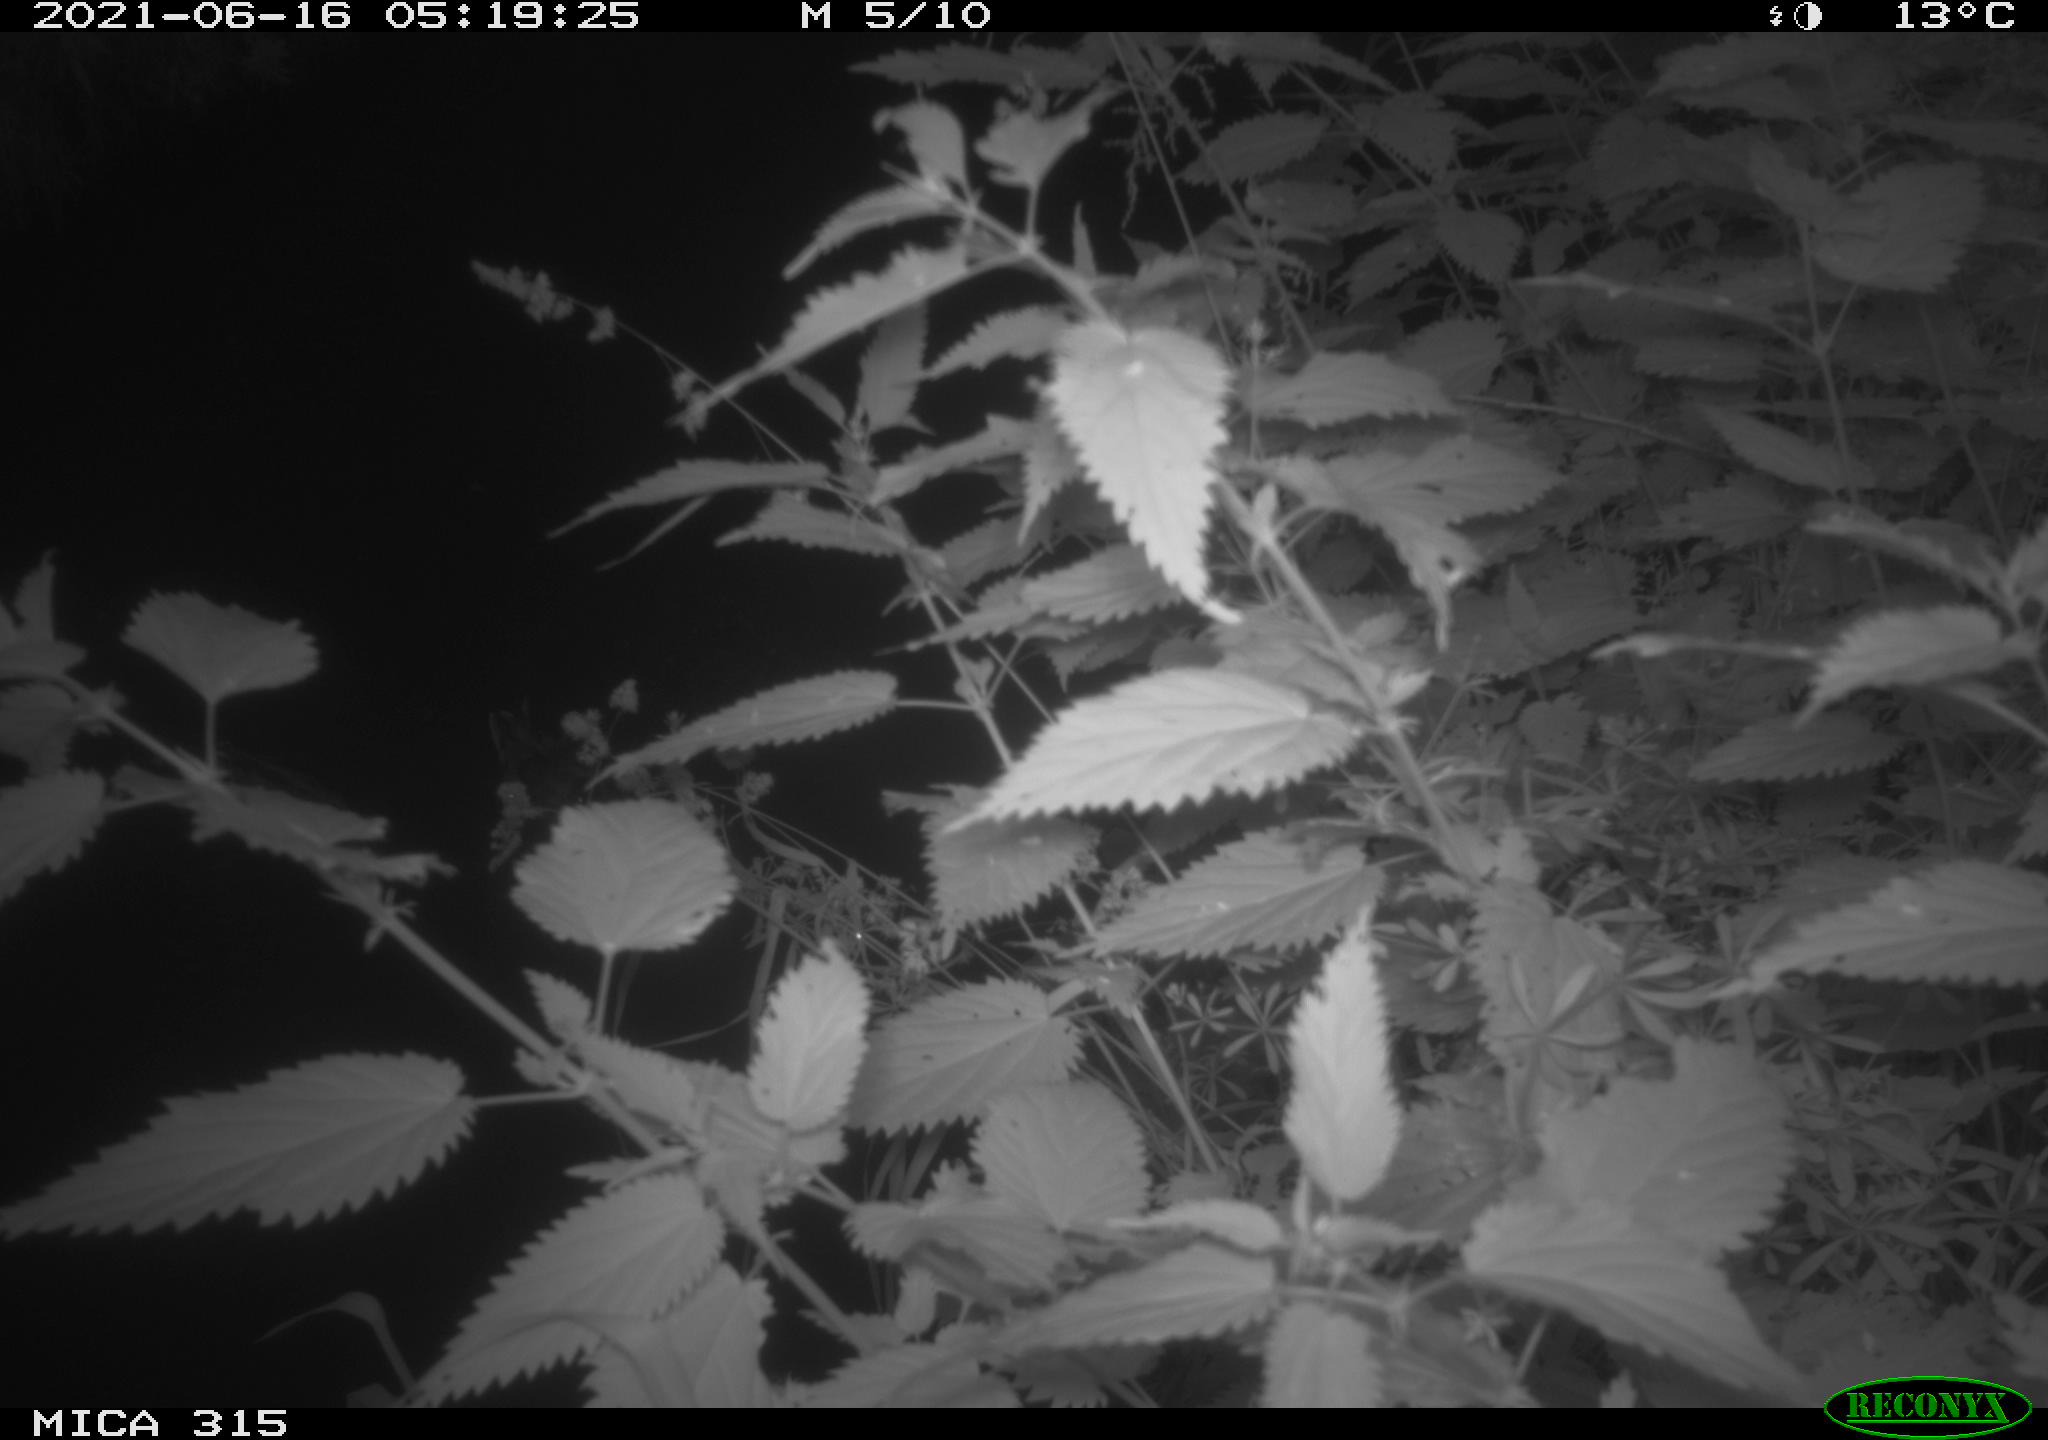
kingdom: Animalia
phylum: Chordata
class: Aves
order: Anseriformes
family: Anatidae
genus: Anas
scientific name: Anas platyrhynchos
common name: Mallard
